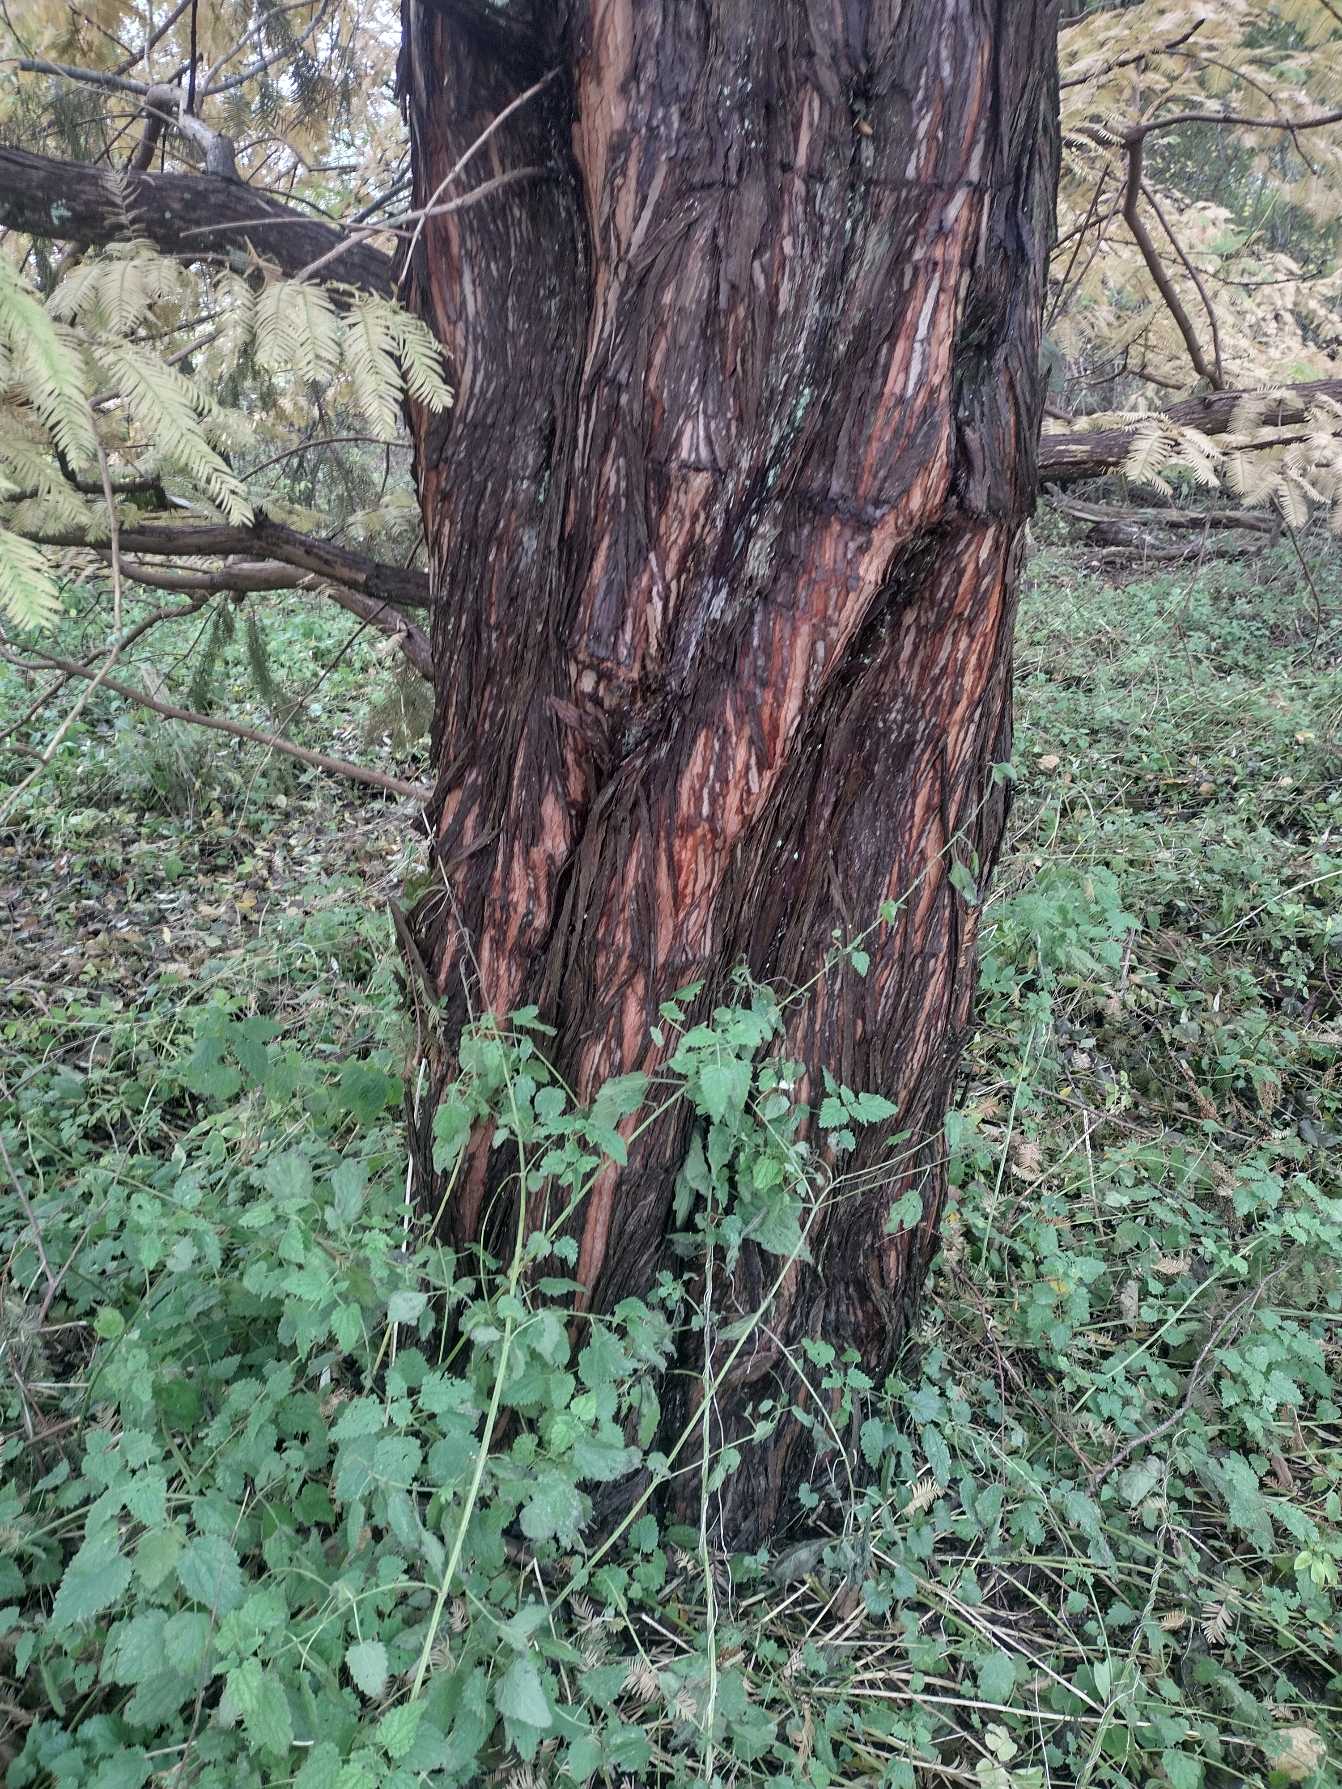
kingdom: Plantae
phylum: Tracheophyta
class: Pinopsida
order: Pinales
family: Cupressaceae
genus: Metasequoia
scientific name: Metasequoia glyptostroboides
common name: Vandgran
